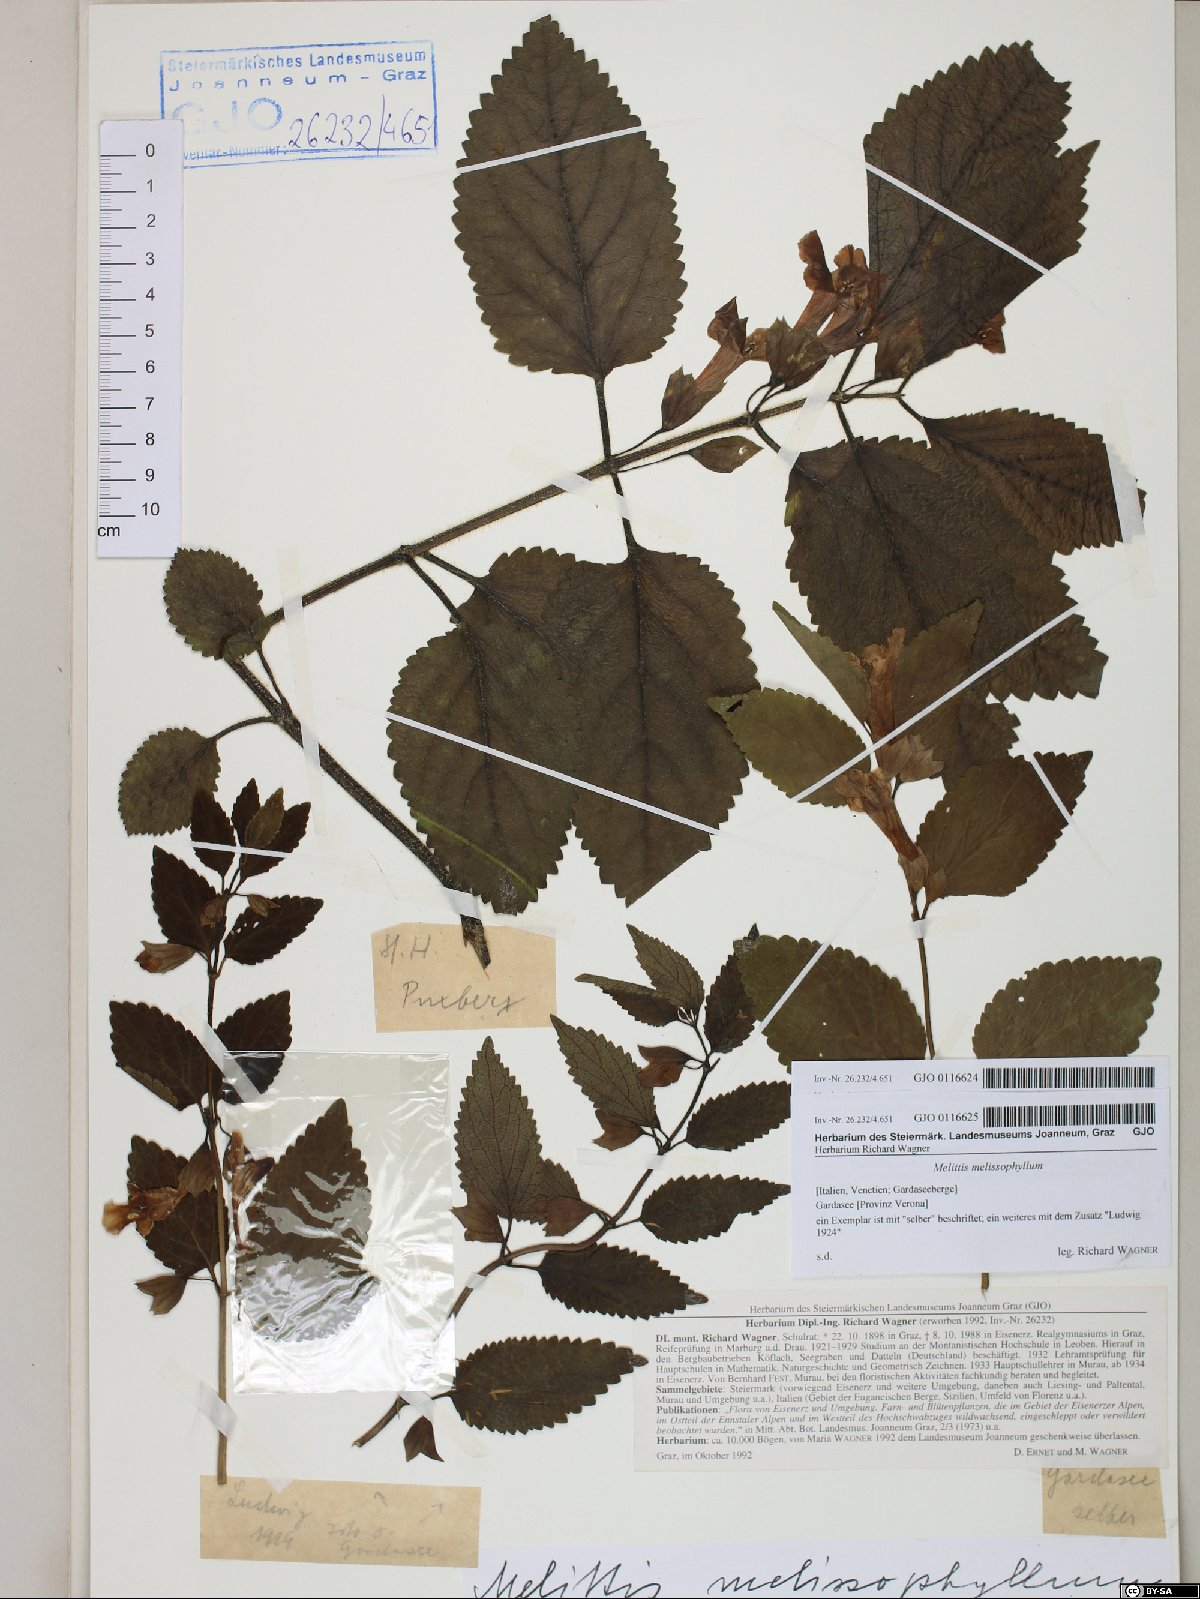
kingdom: Plantae
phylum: Tracheophyta
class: Magnoliopsida
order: Lamiales
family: Lamiaceae
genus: Melittis
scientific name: Melittis melissophyllum
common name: Bastard balm
